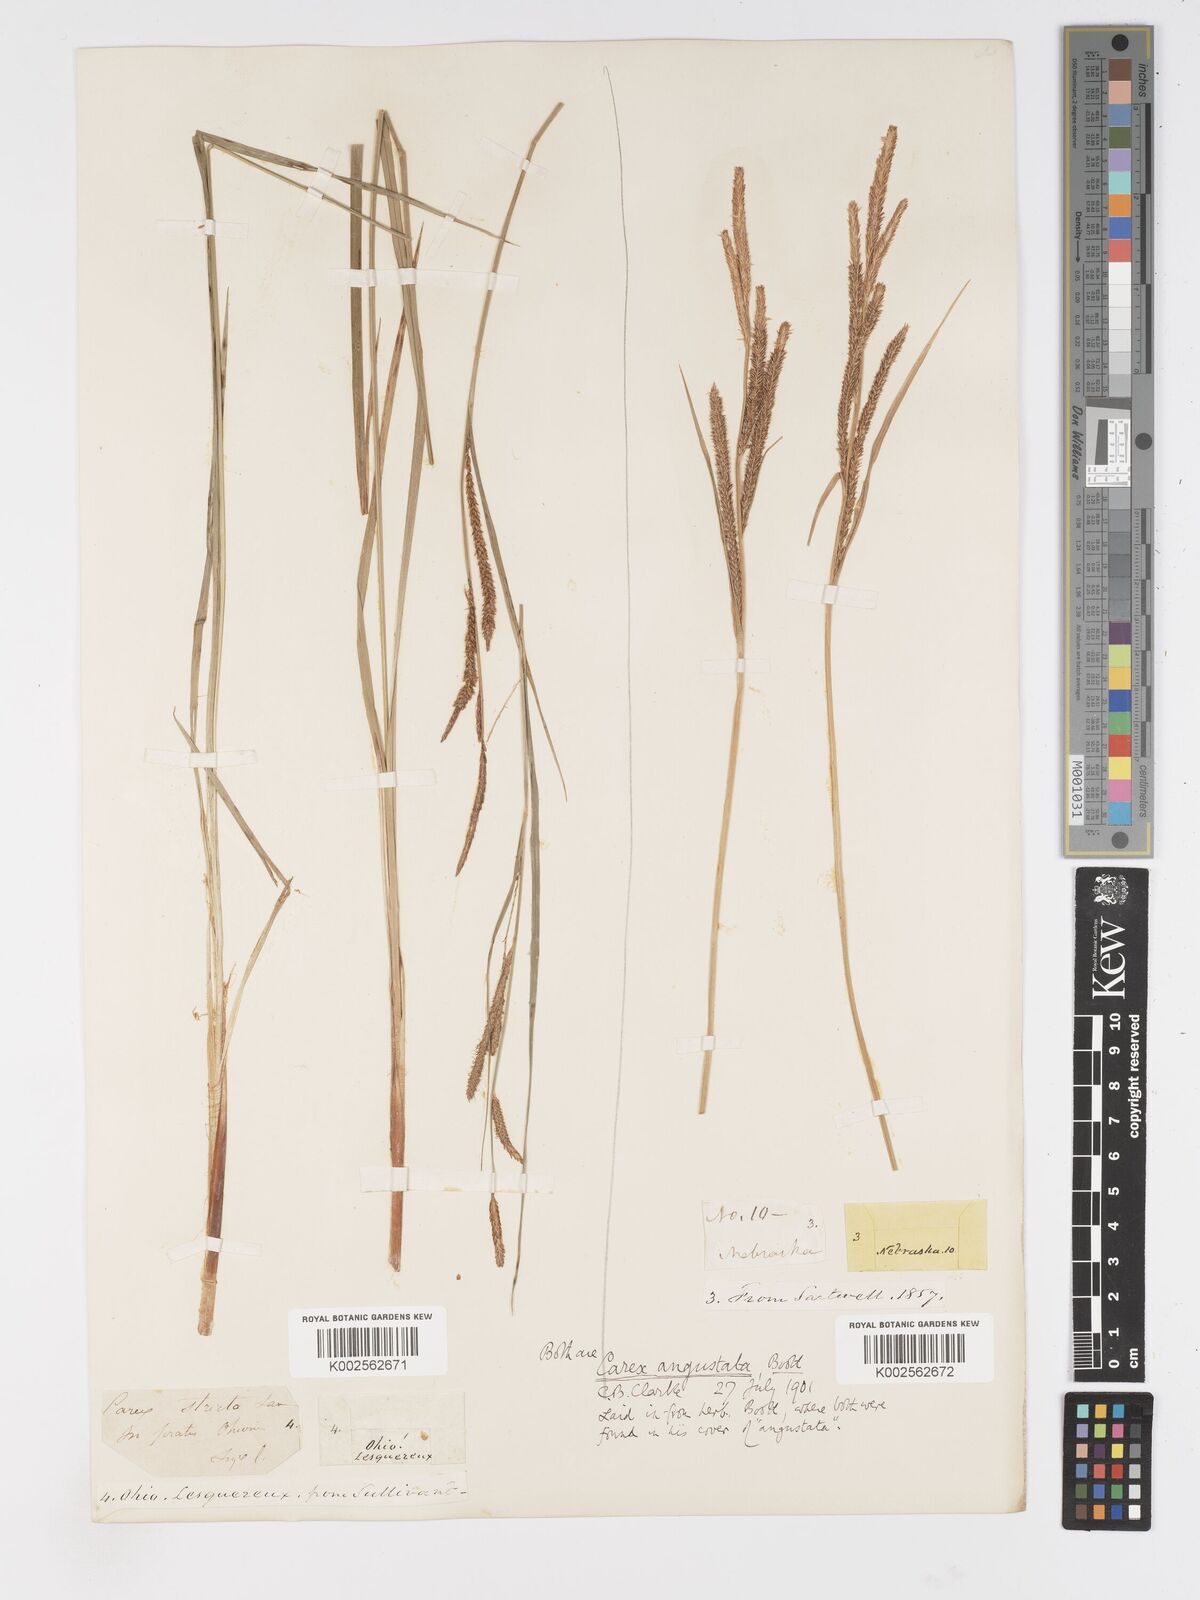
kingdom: Plantae
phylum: Tracheophyta
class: Liliopsida
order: Poales
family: Cyperaceae
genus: Carex
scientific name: Carex stricta
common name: Hummock sedge
